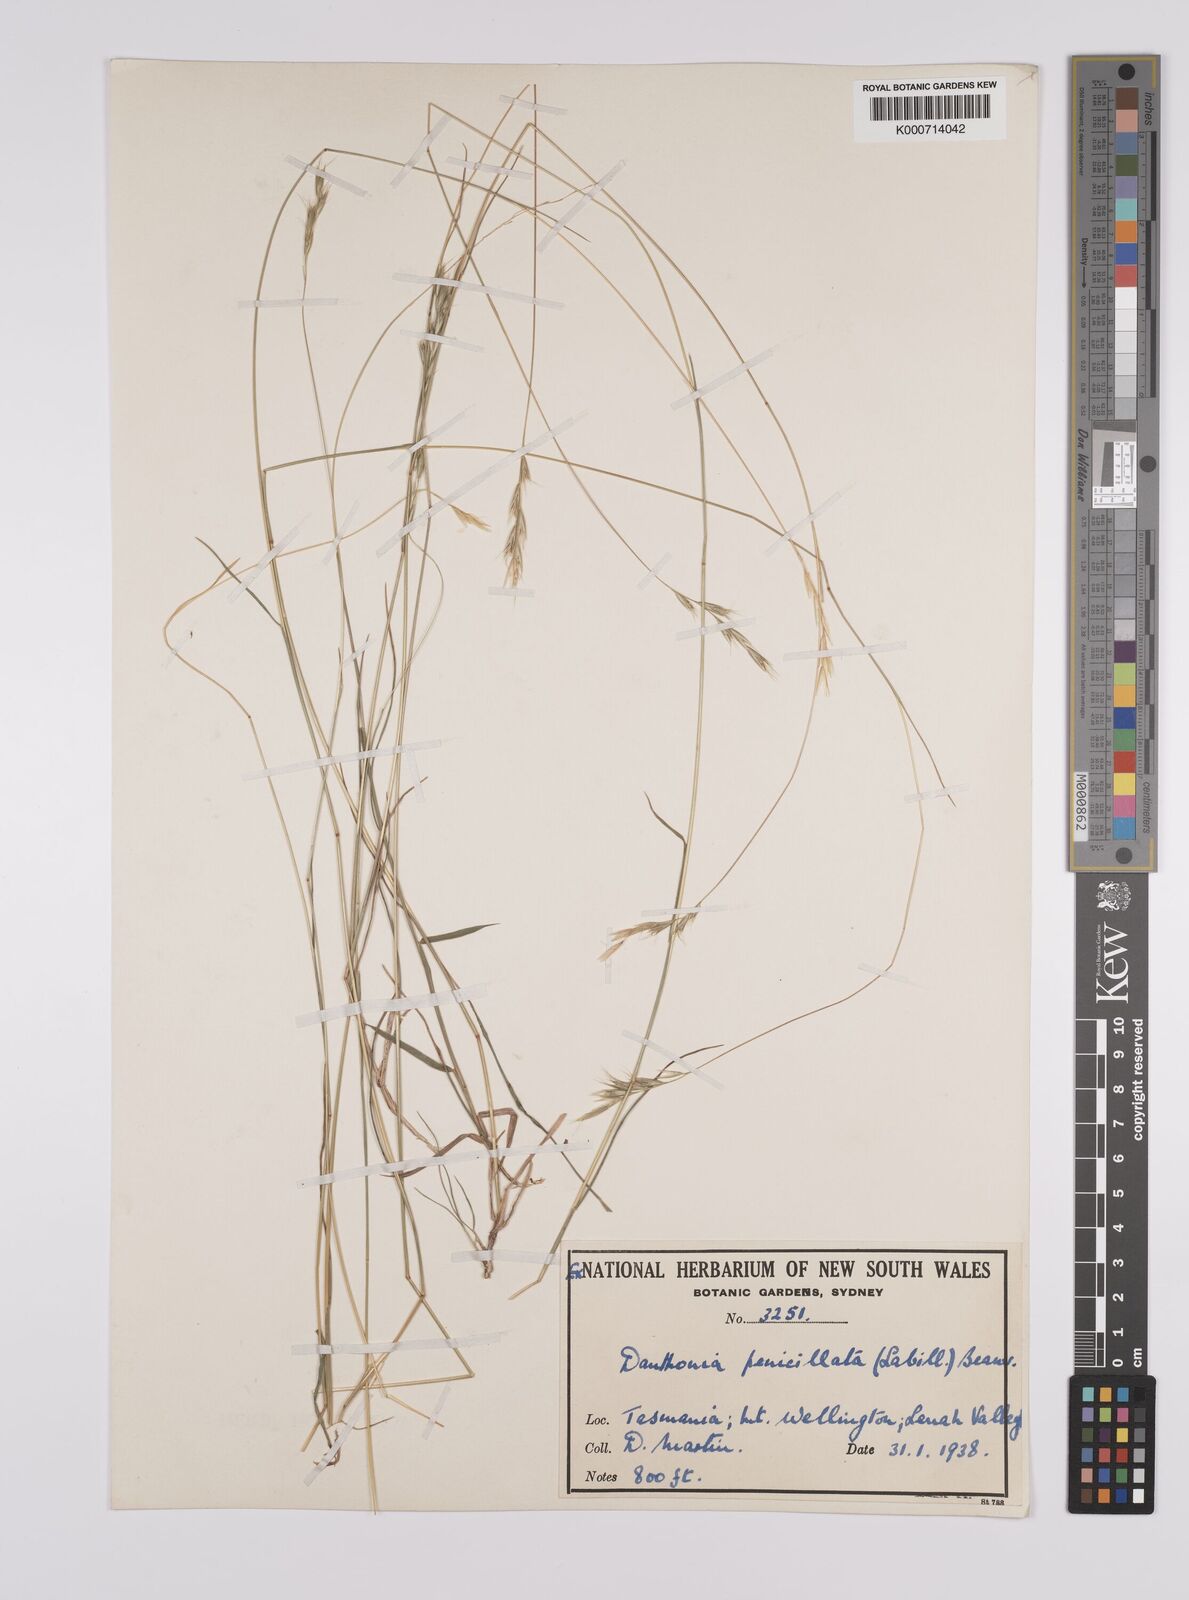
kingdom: Plantae
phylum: Tracheophyta
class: Liliopsida
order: Poales
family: Poaceae
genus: Rytidosperma
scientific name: Rytidosperma penicillatum
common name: Hairy wallaby grass
